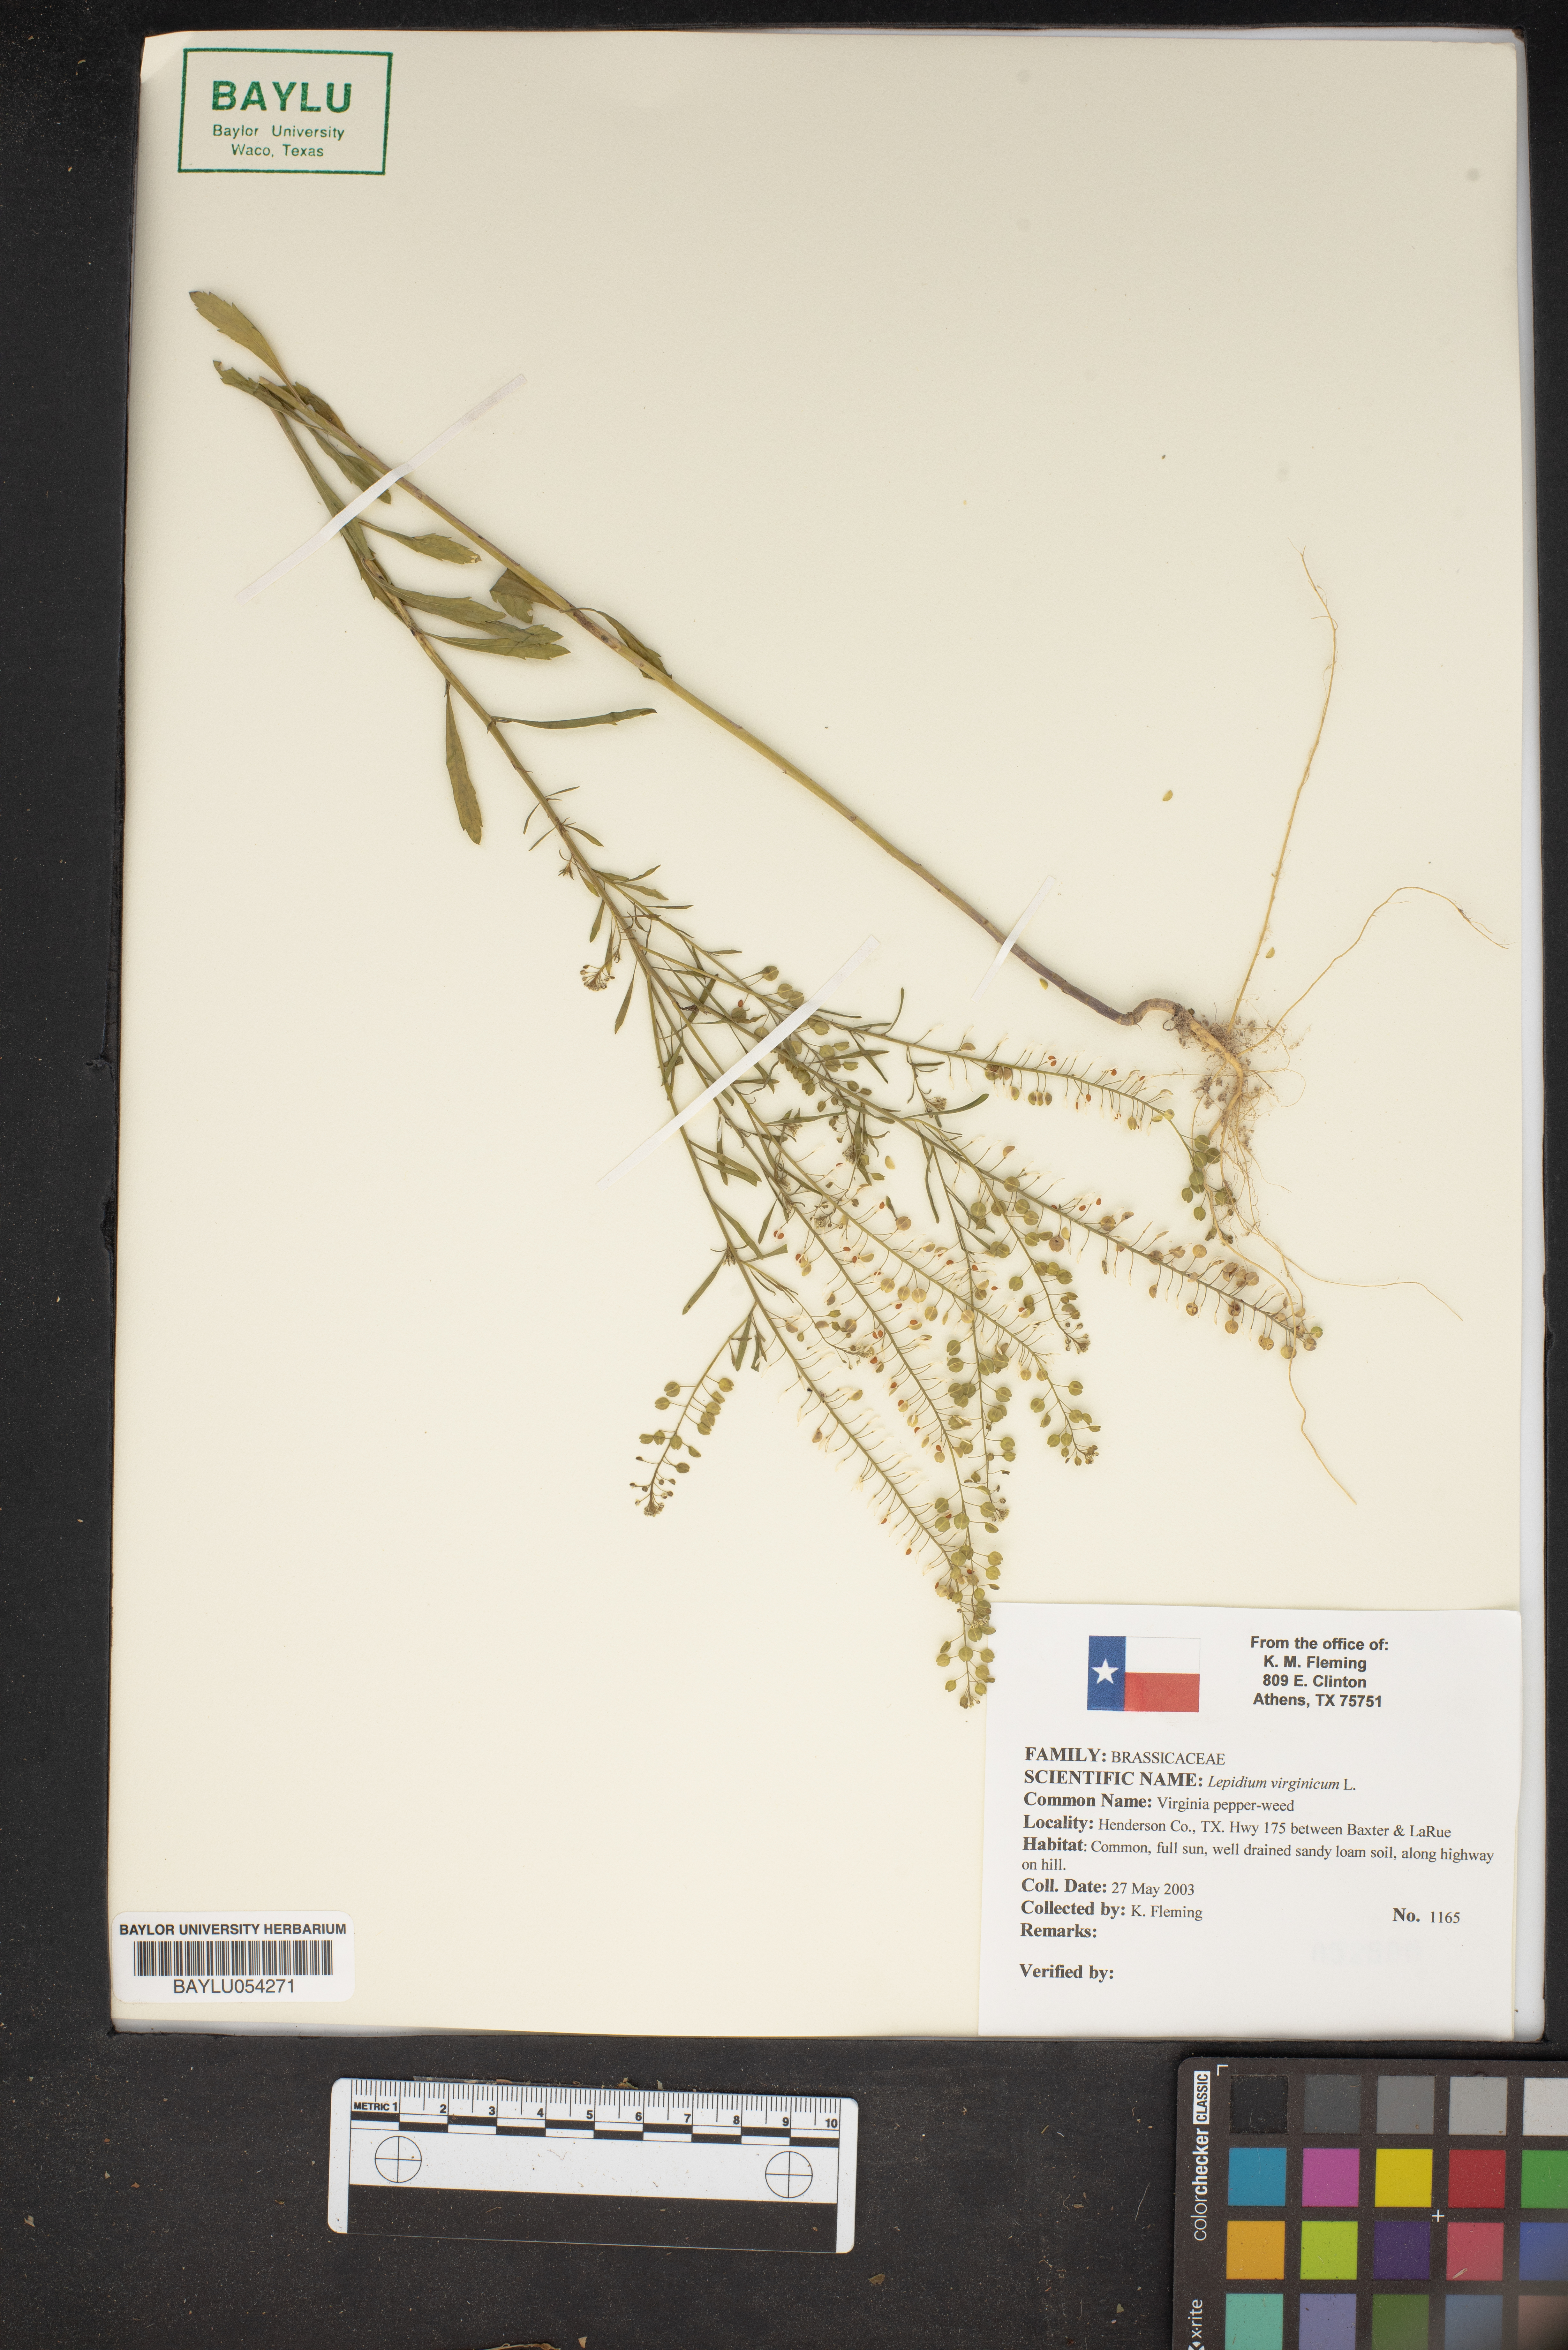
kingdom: Plantae
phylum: Tracheophyta
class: Magnoliopsida
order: Brassicales
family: Brassicaceae
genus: Lepidium
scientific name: Lepidium virginicum
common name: Least pepperwort
